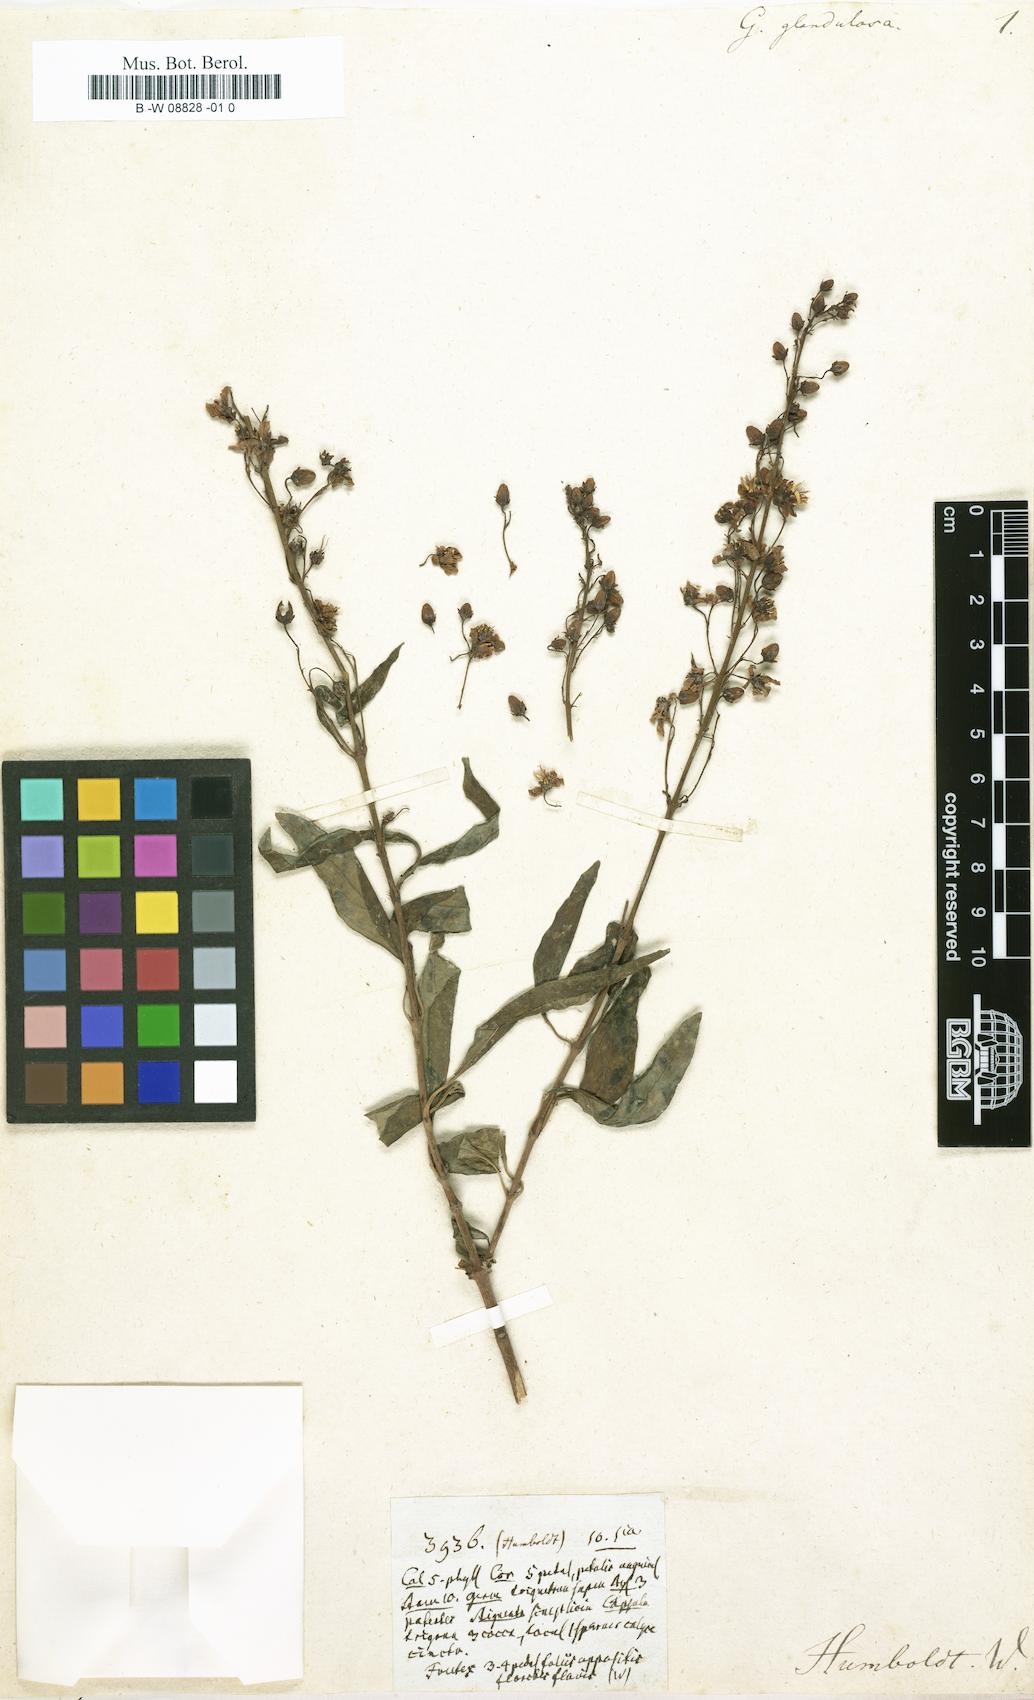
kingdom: Plantae
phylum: Tracheophyta
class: Magnoliopsida
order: Malpighiales
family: Malpighiaceae
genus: Galphimia
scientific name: Galphimia glandulosa
